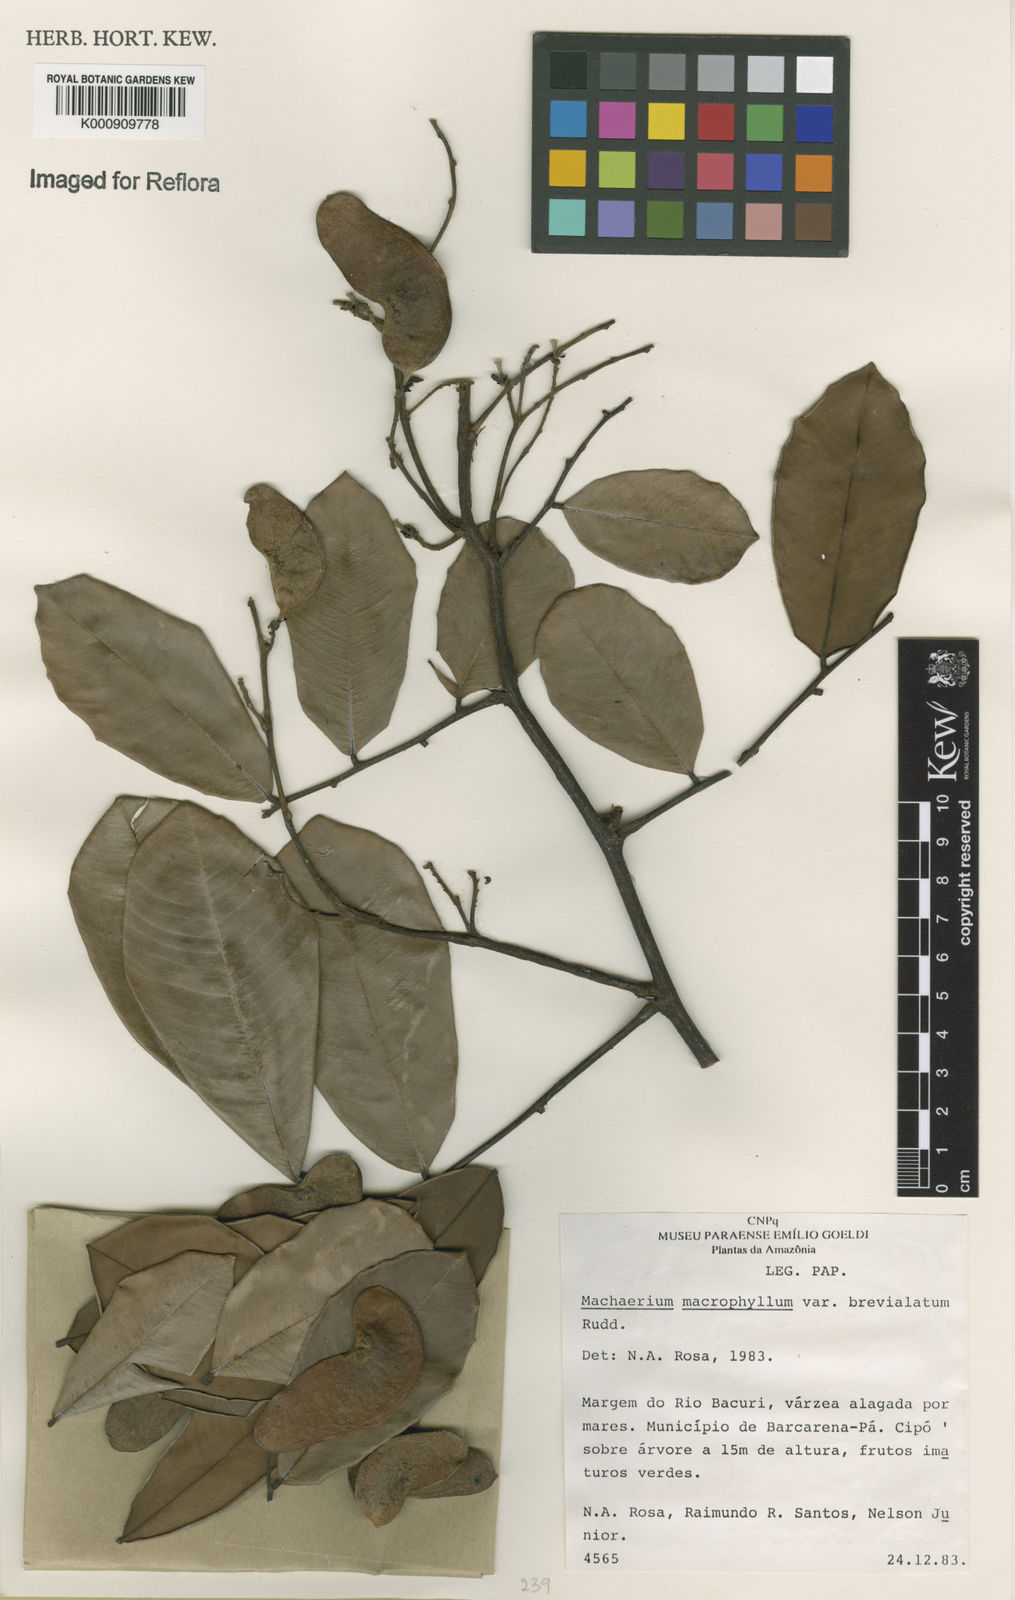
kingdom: Plantae
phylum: Tracheophyta
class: Magnoliopsida
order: Fabales
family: Fabaceae
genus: Machaerium
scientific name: Machaerium macrophyllum
